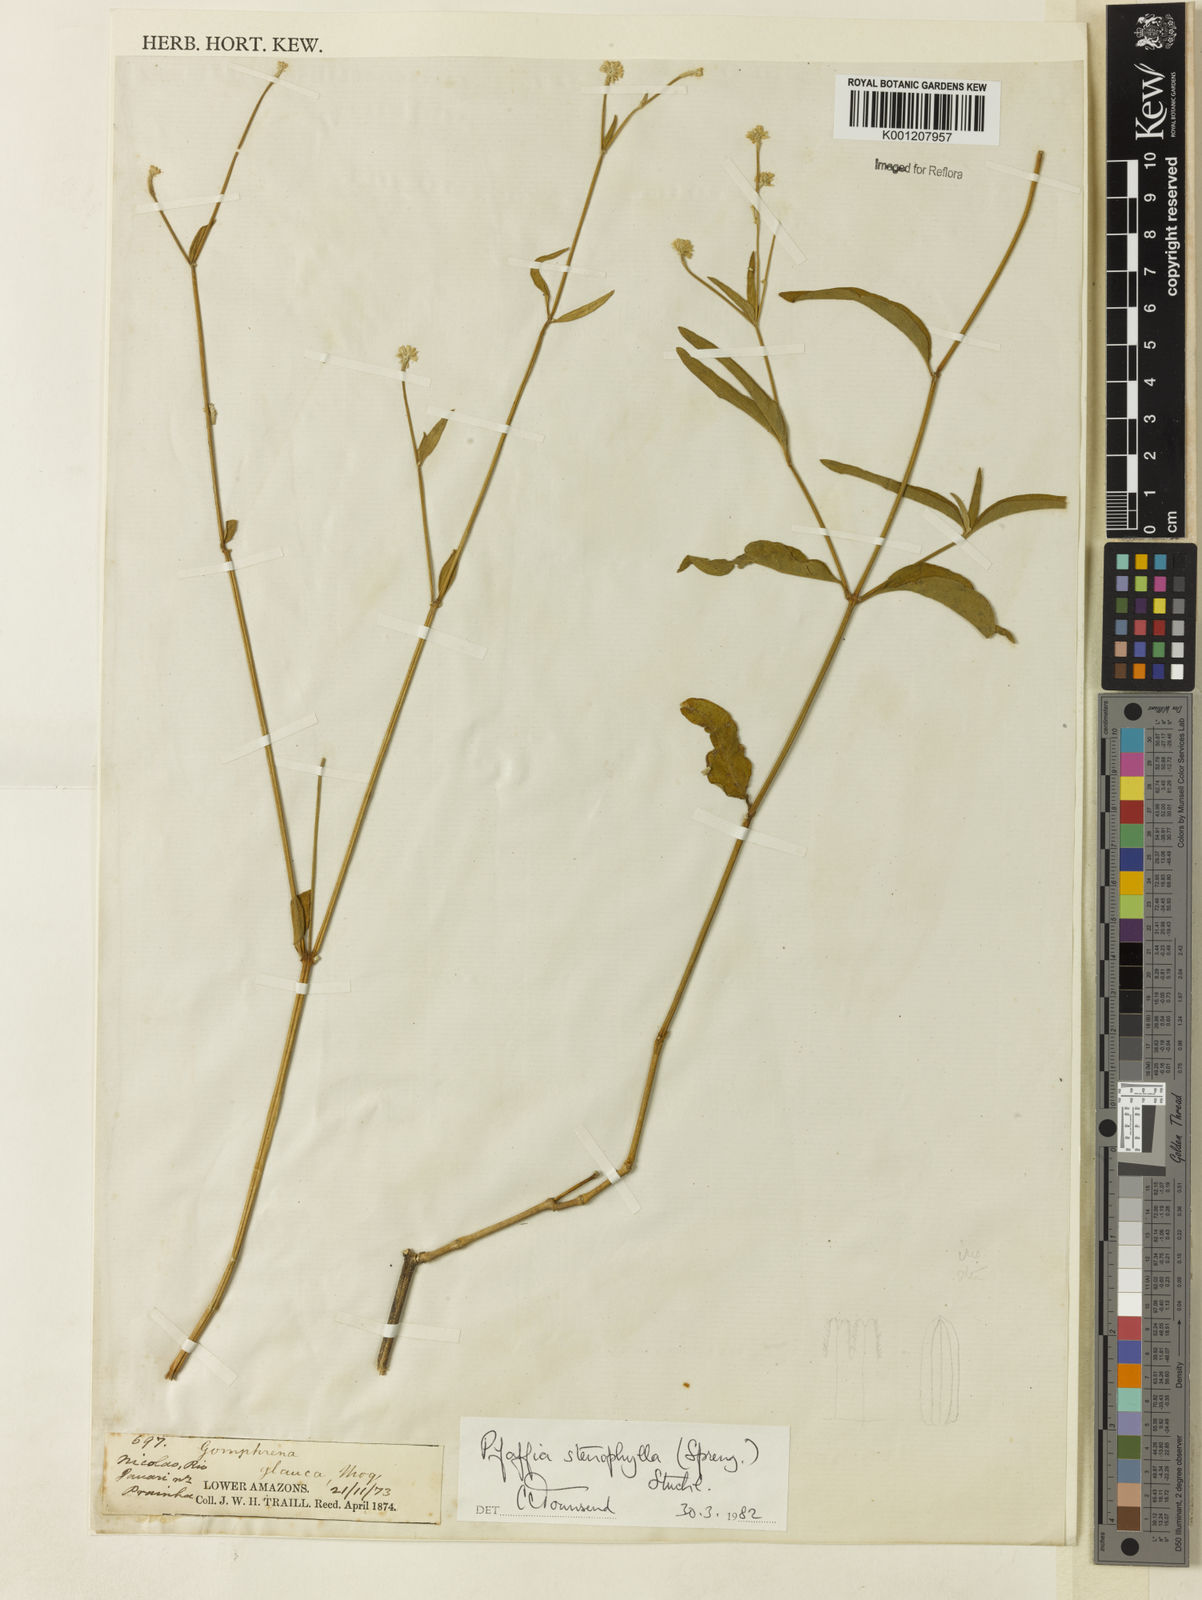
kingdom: Plantae
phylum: Tracheophyta
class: Magnoliopsida
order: Caryophyllales
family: Amaranthaceae
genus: Pfaffia
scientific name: Pfaffia
